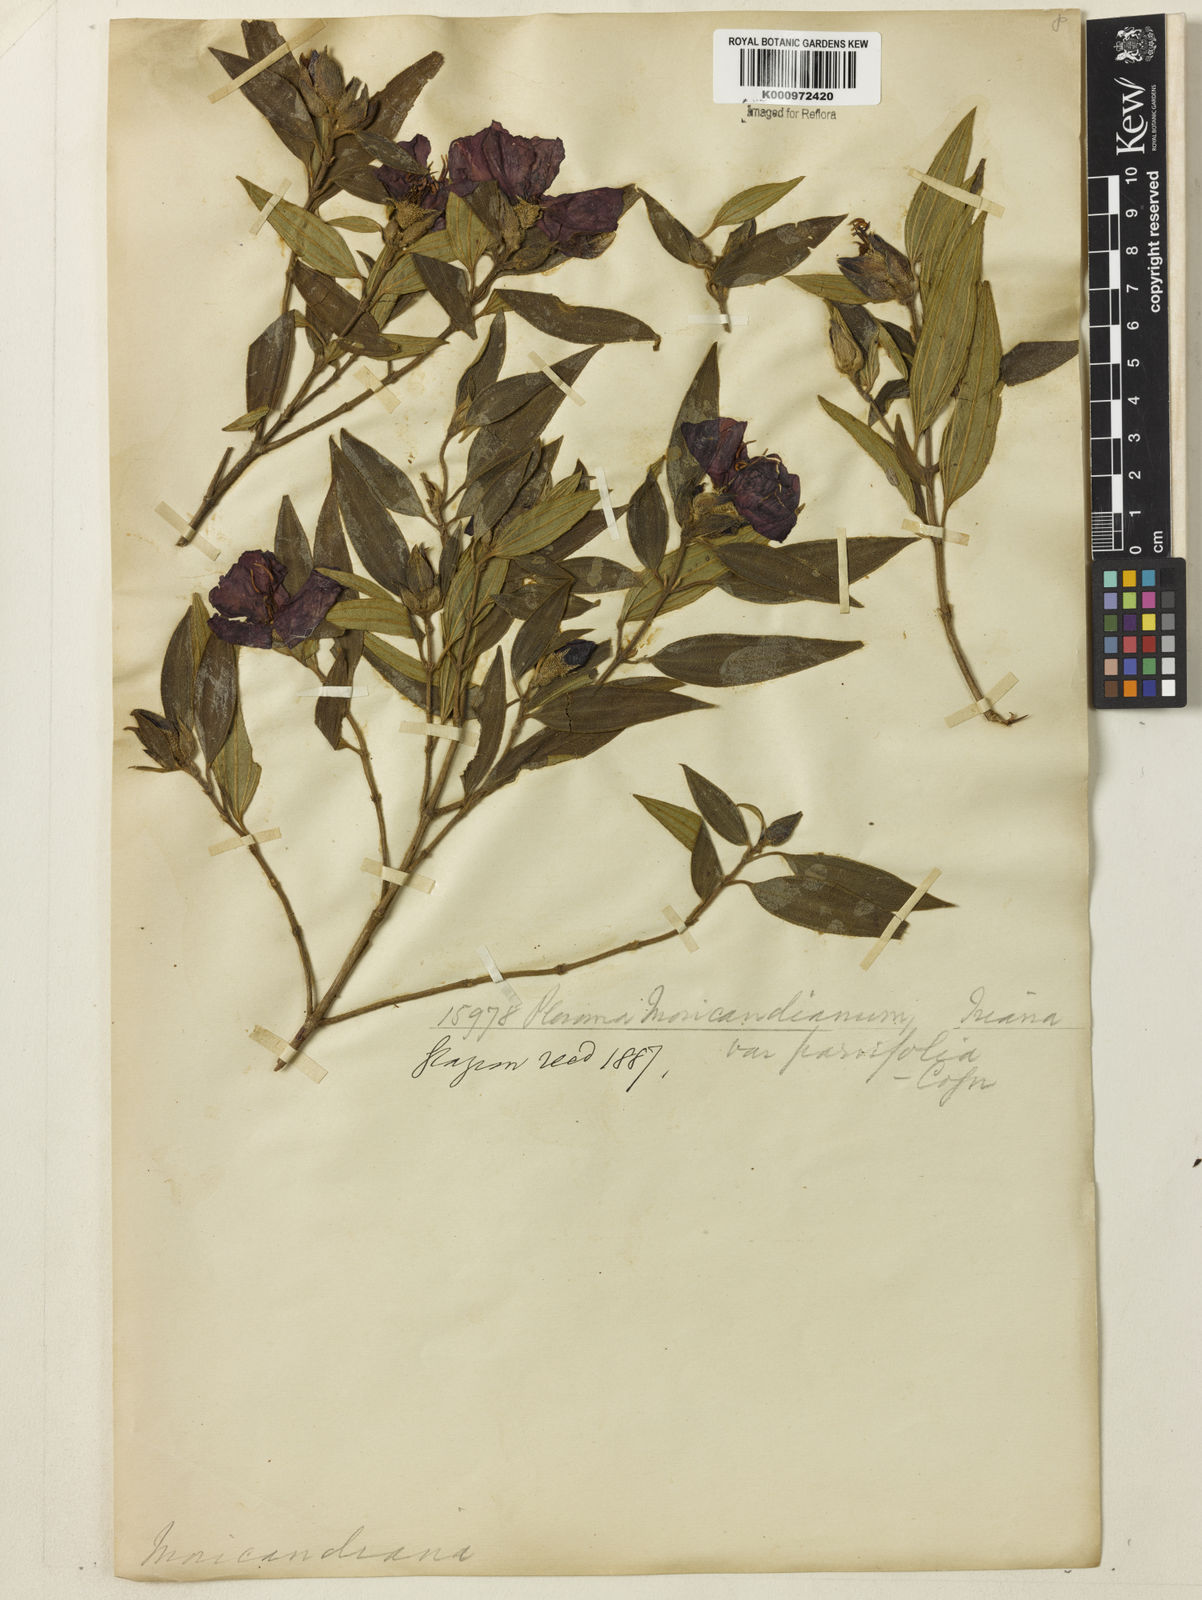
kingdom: Plantae
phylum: Tracheophyta
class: Magnoliopsida
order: Myrtales
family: Melastomataceae
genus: Pleroma
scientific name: Pleroma gaudichaudianum
